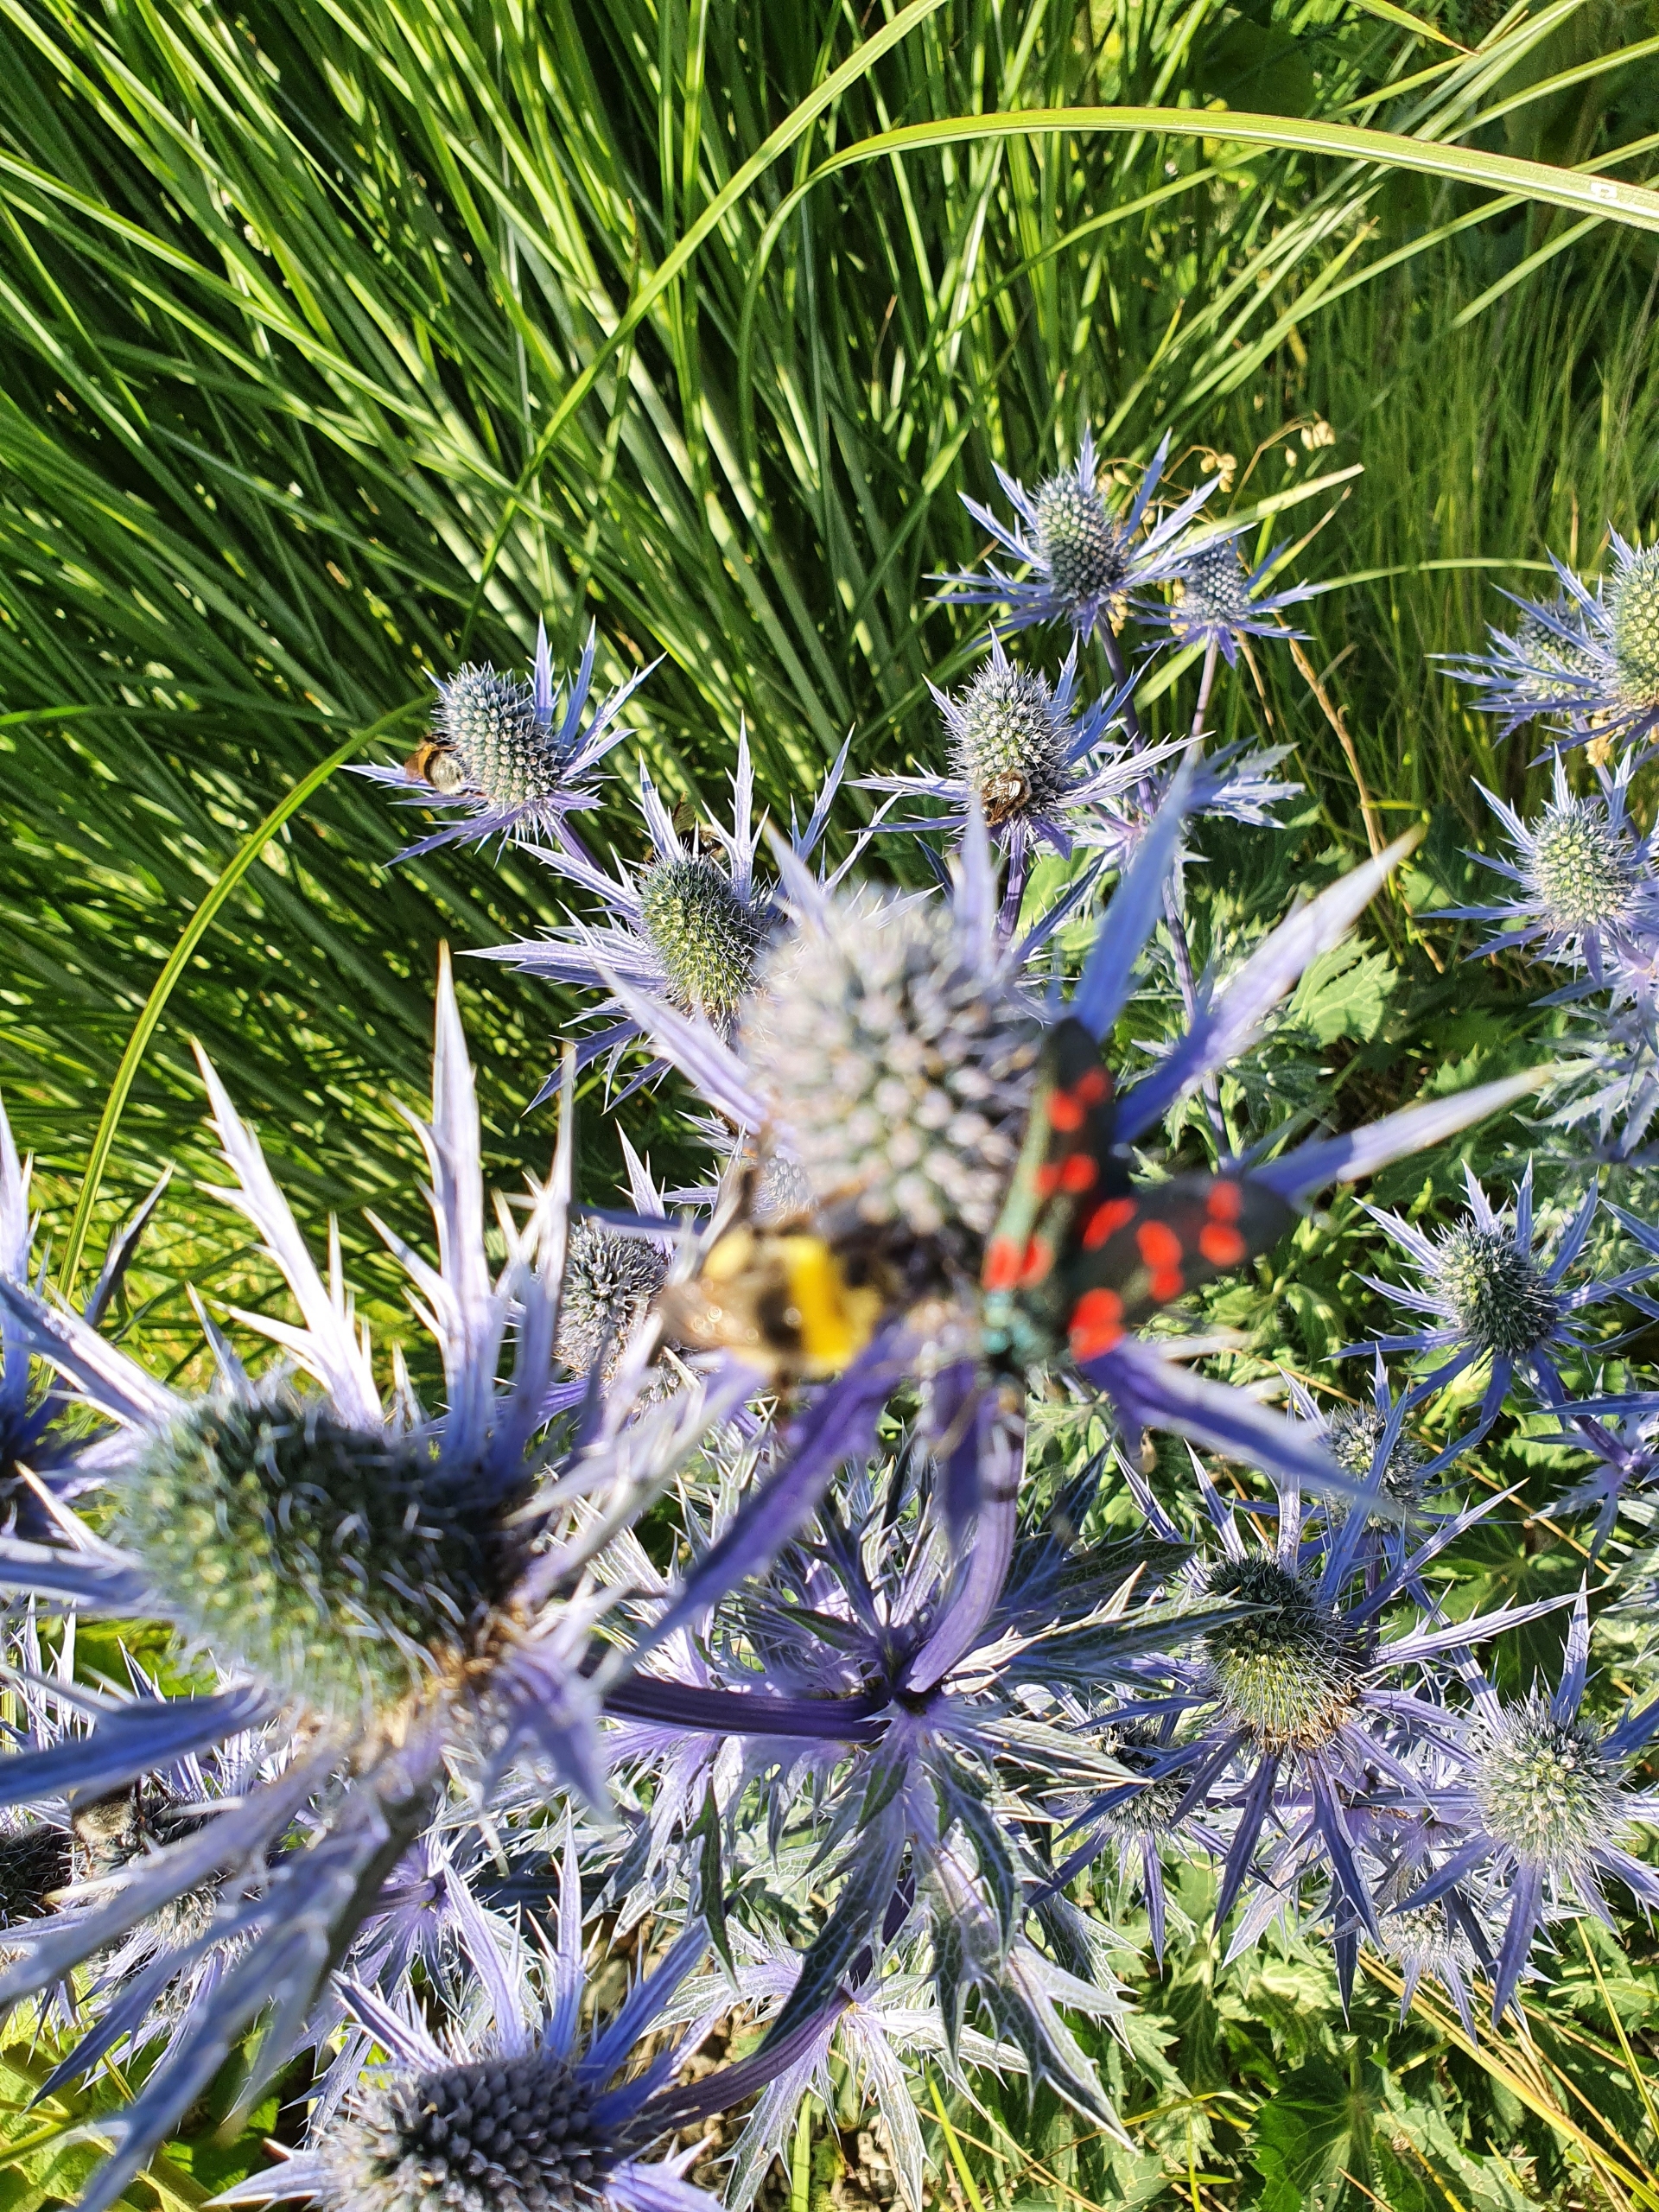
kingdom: Animalia
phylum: Arthropoda
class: Insecta
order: Lepidoptera
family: Zygaenidae
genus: Zygaena
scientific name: Zygaena filipendulae
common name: Seksplettet køllesværmer
